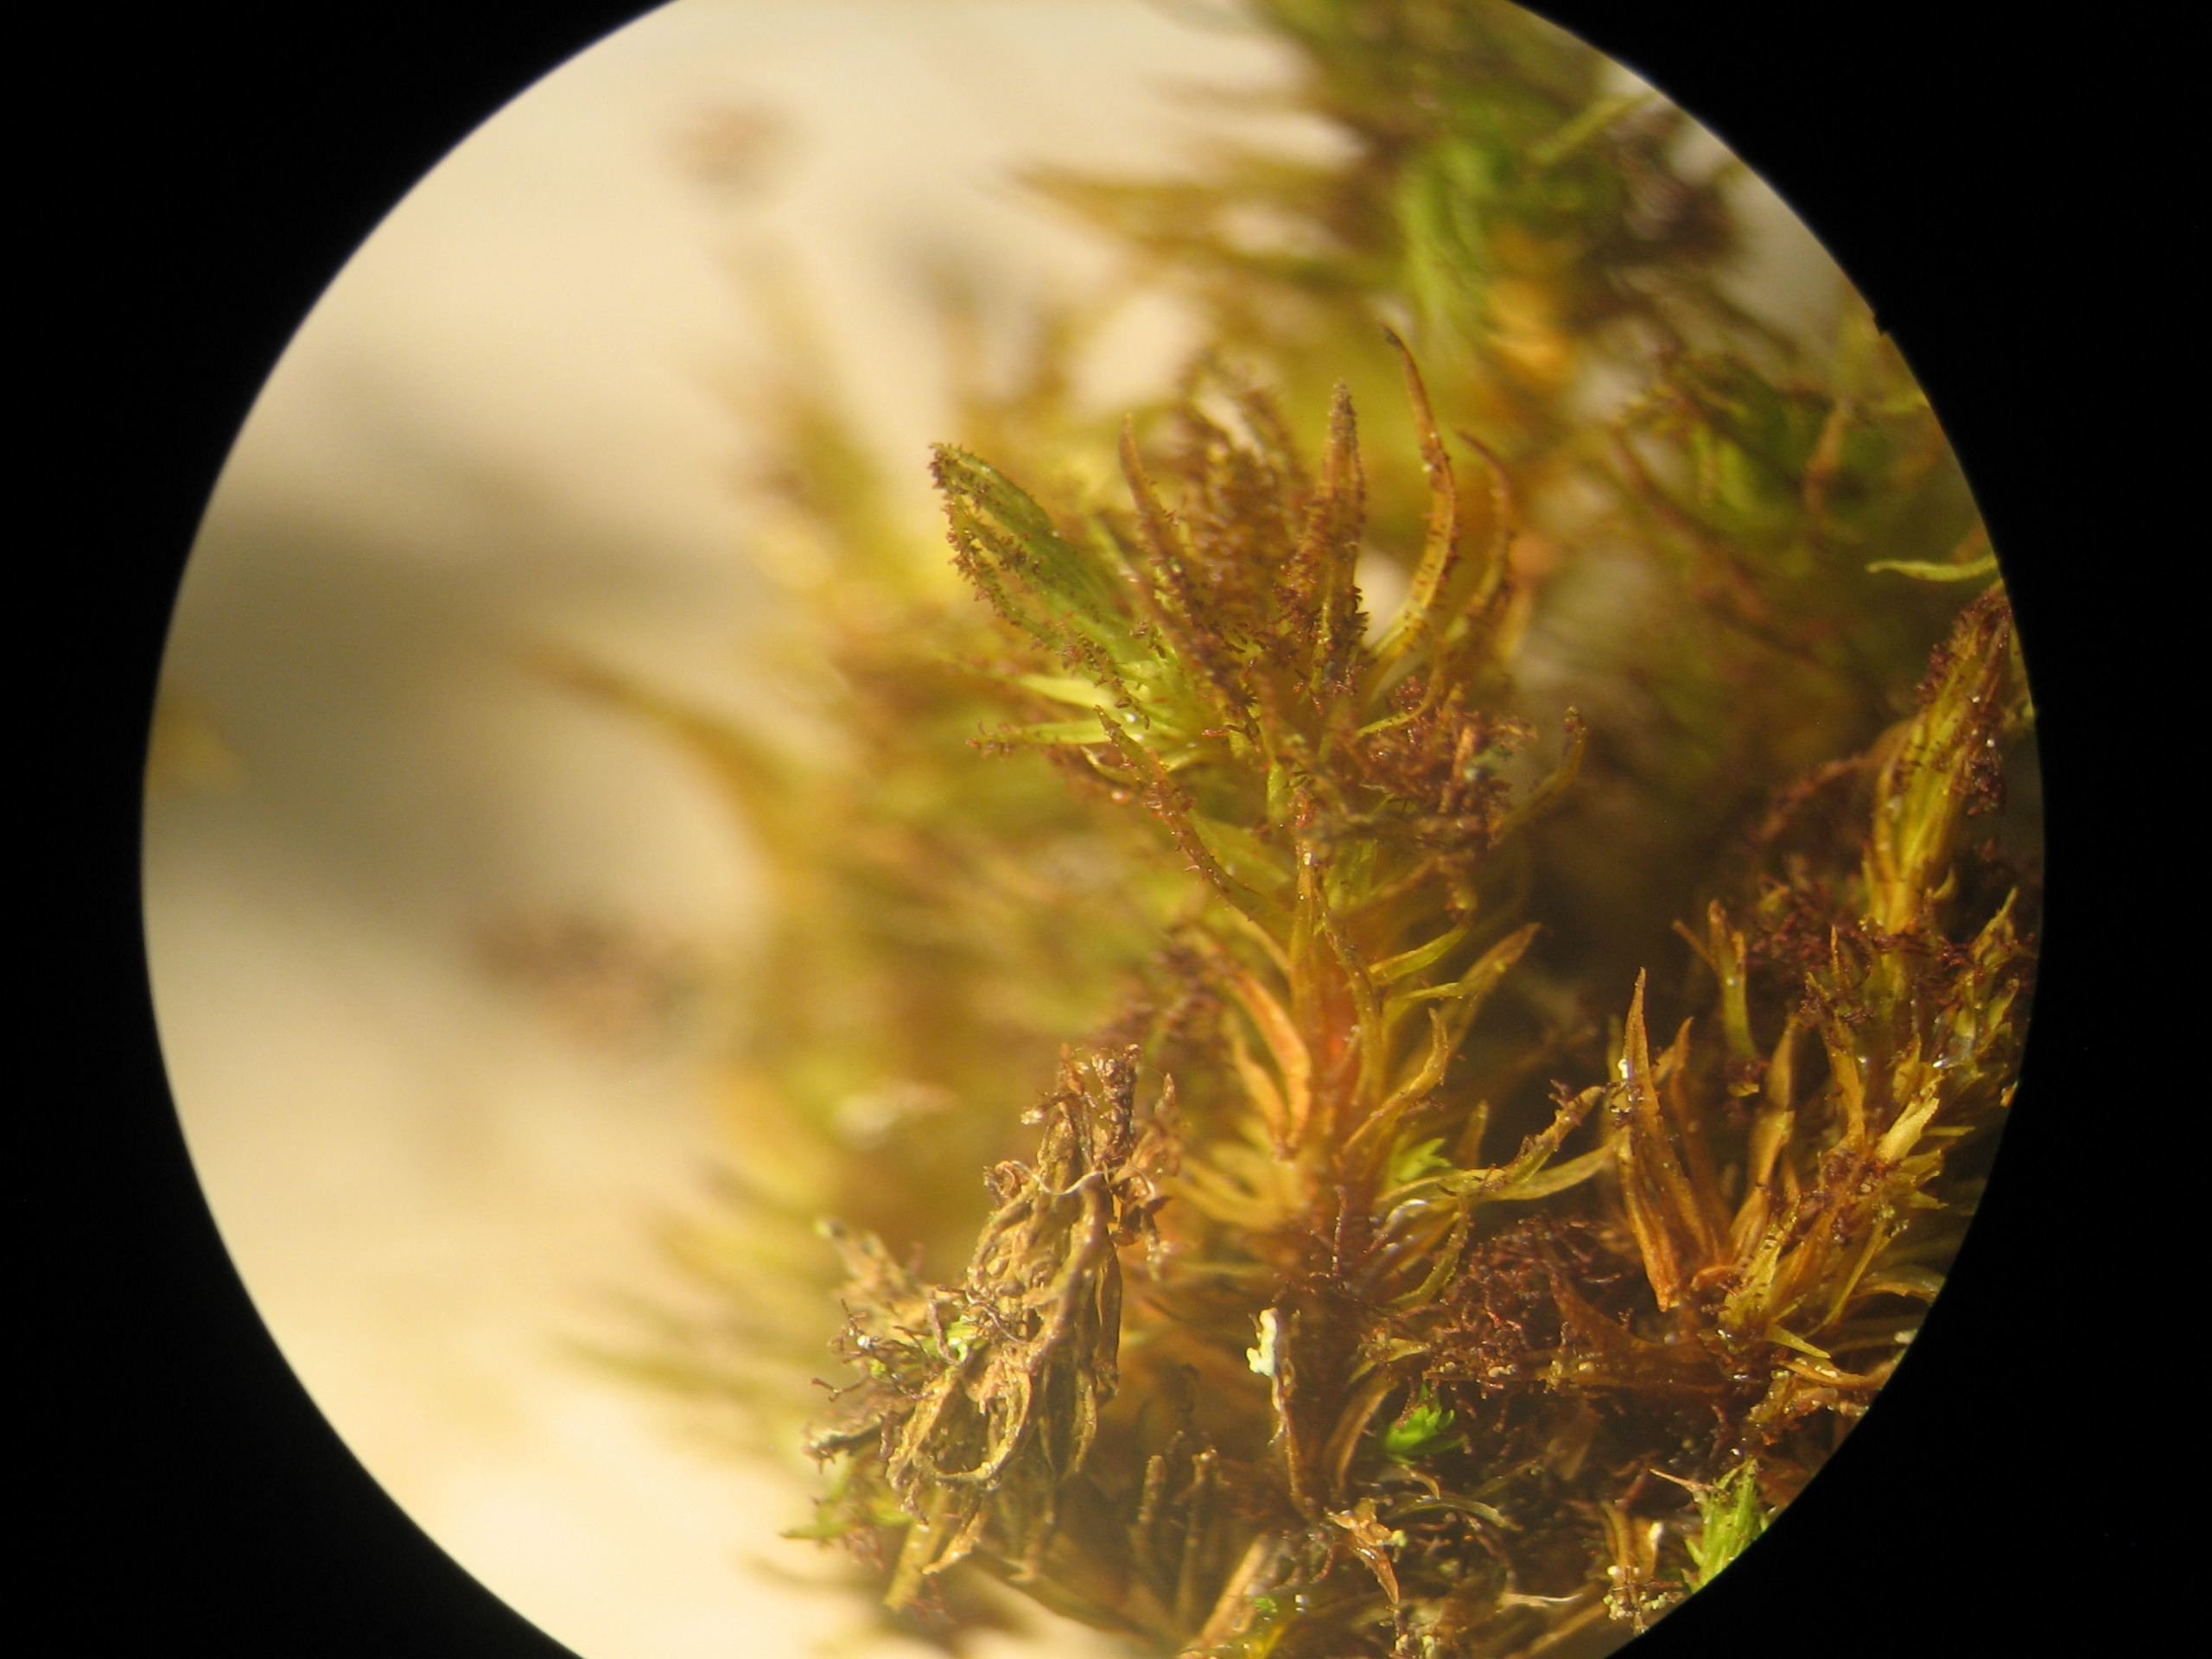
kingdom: Plantae
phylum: Bryophyta
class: Bryopsida
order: Orthotrichales
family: Orthotrichaceae
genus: Pulvigera
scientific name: Pulvigera lyellii
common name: Stor furehætte
